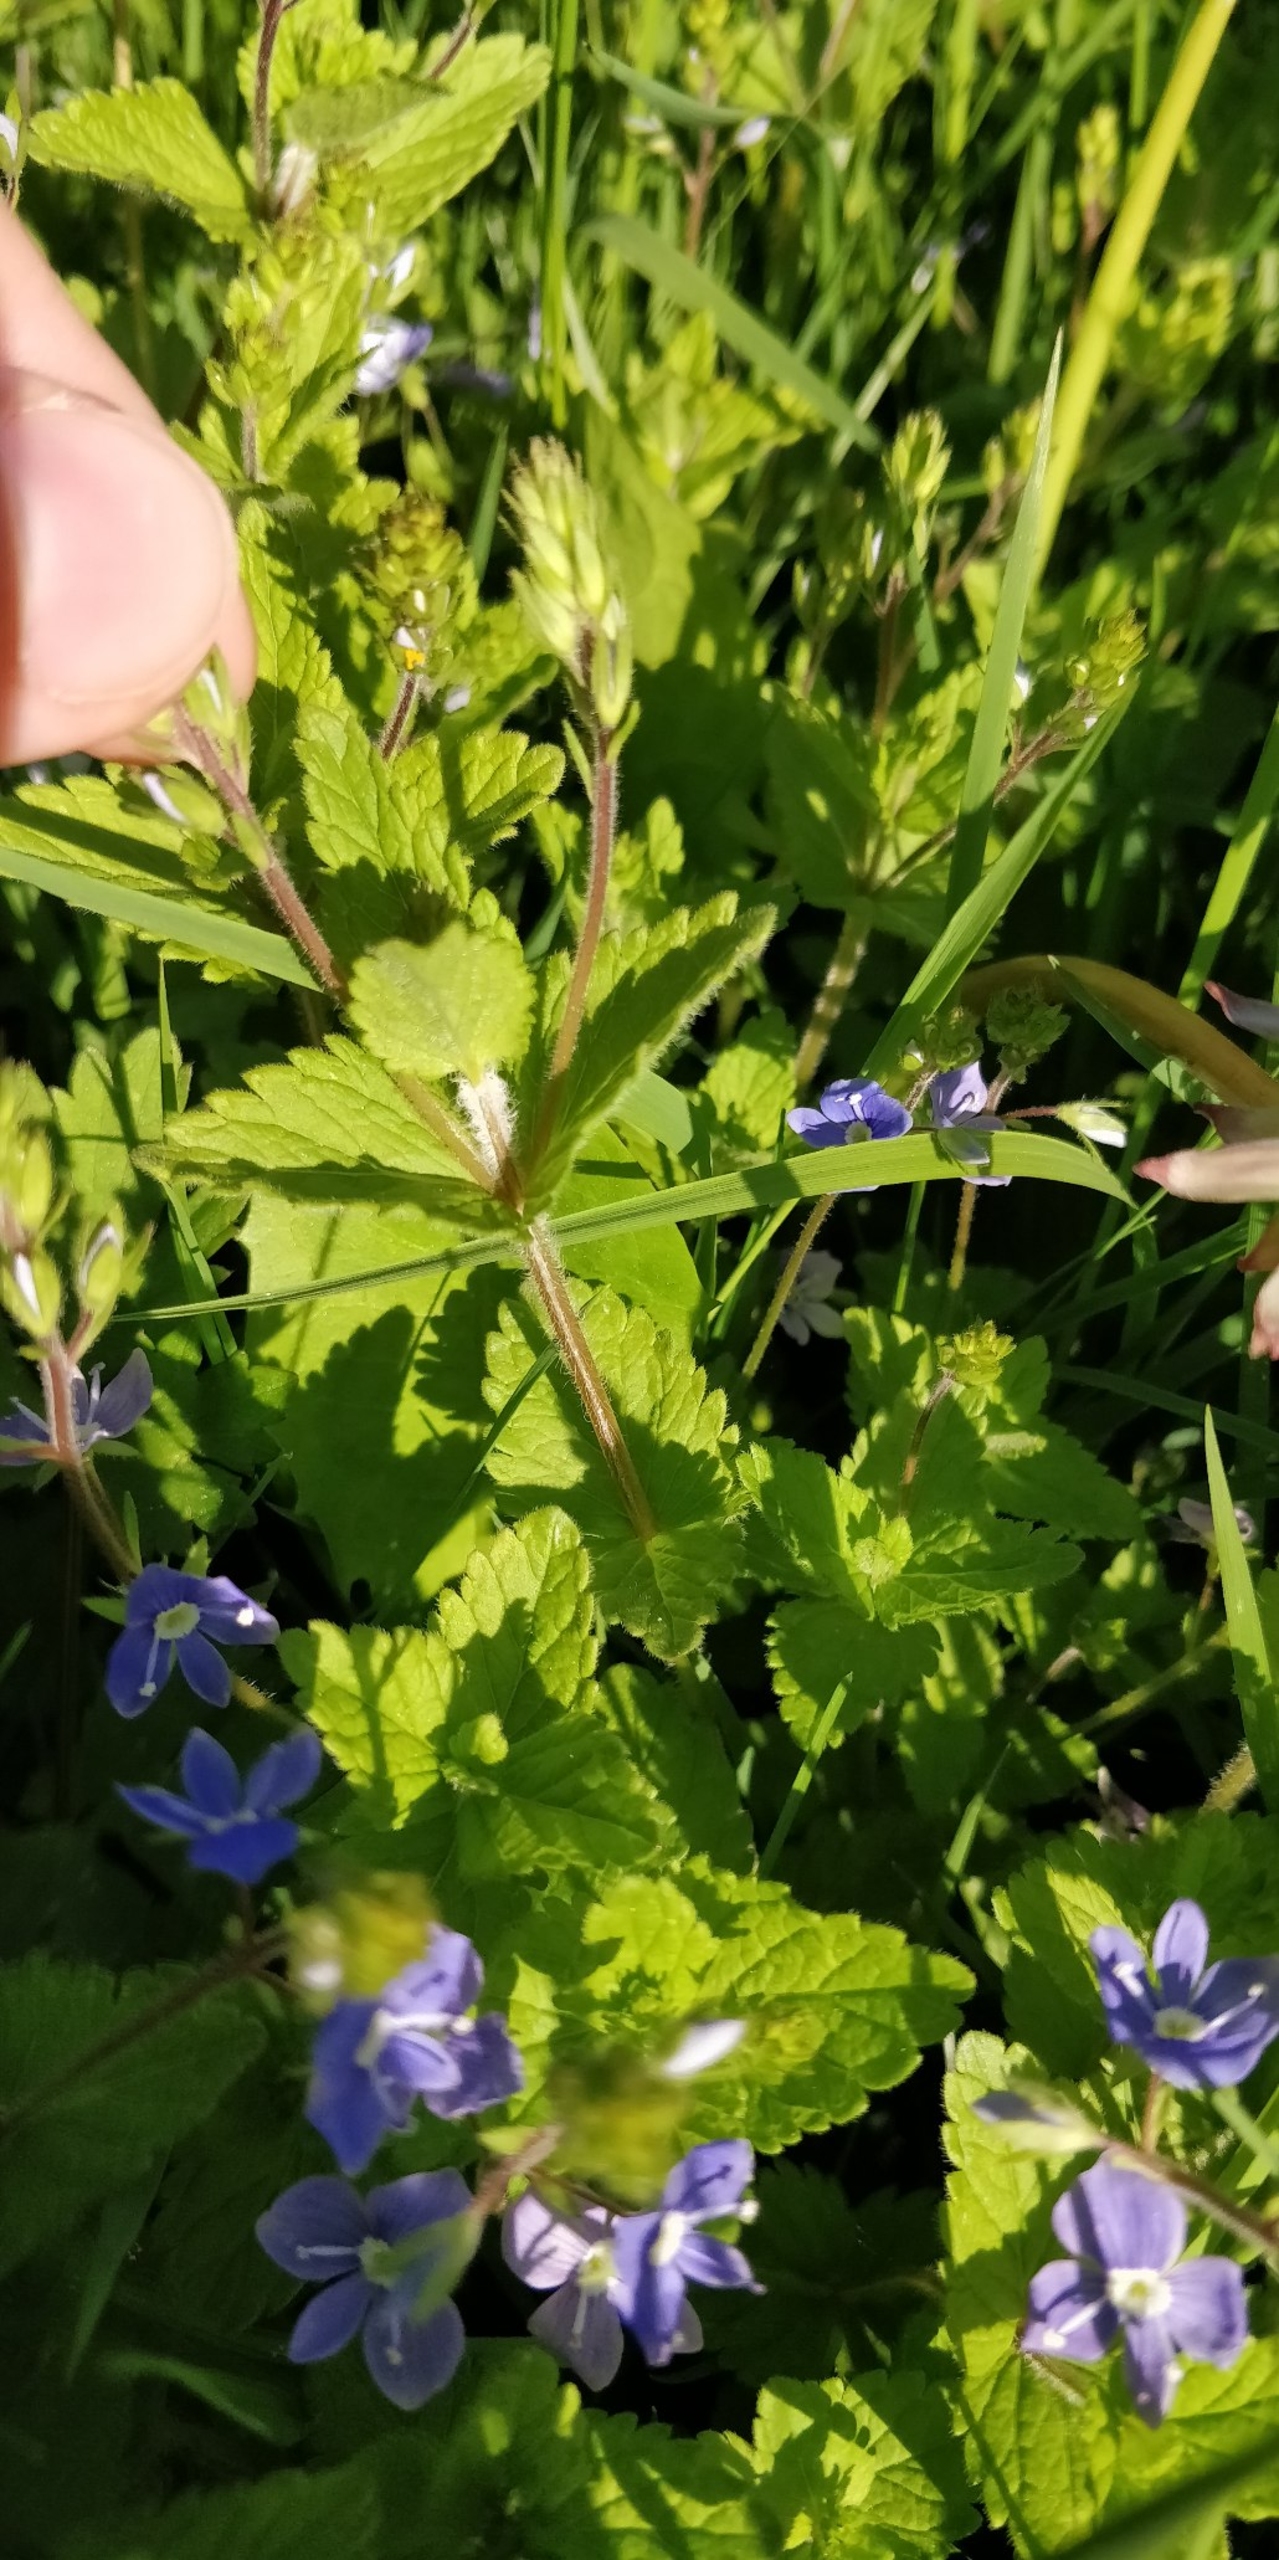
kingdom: Plantae
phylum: Tracheophyta
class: Magnoliopsida
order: Lamiales
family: Plantaginaceae
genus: Veronica
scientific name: Veronica chamaedrys
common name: Tveskægget ærenpris
